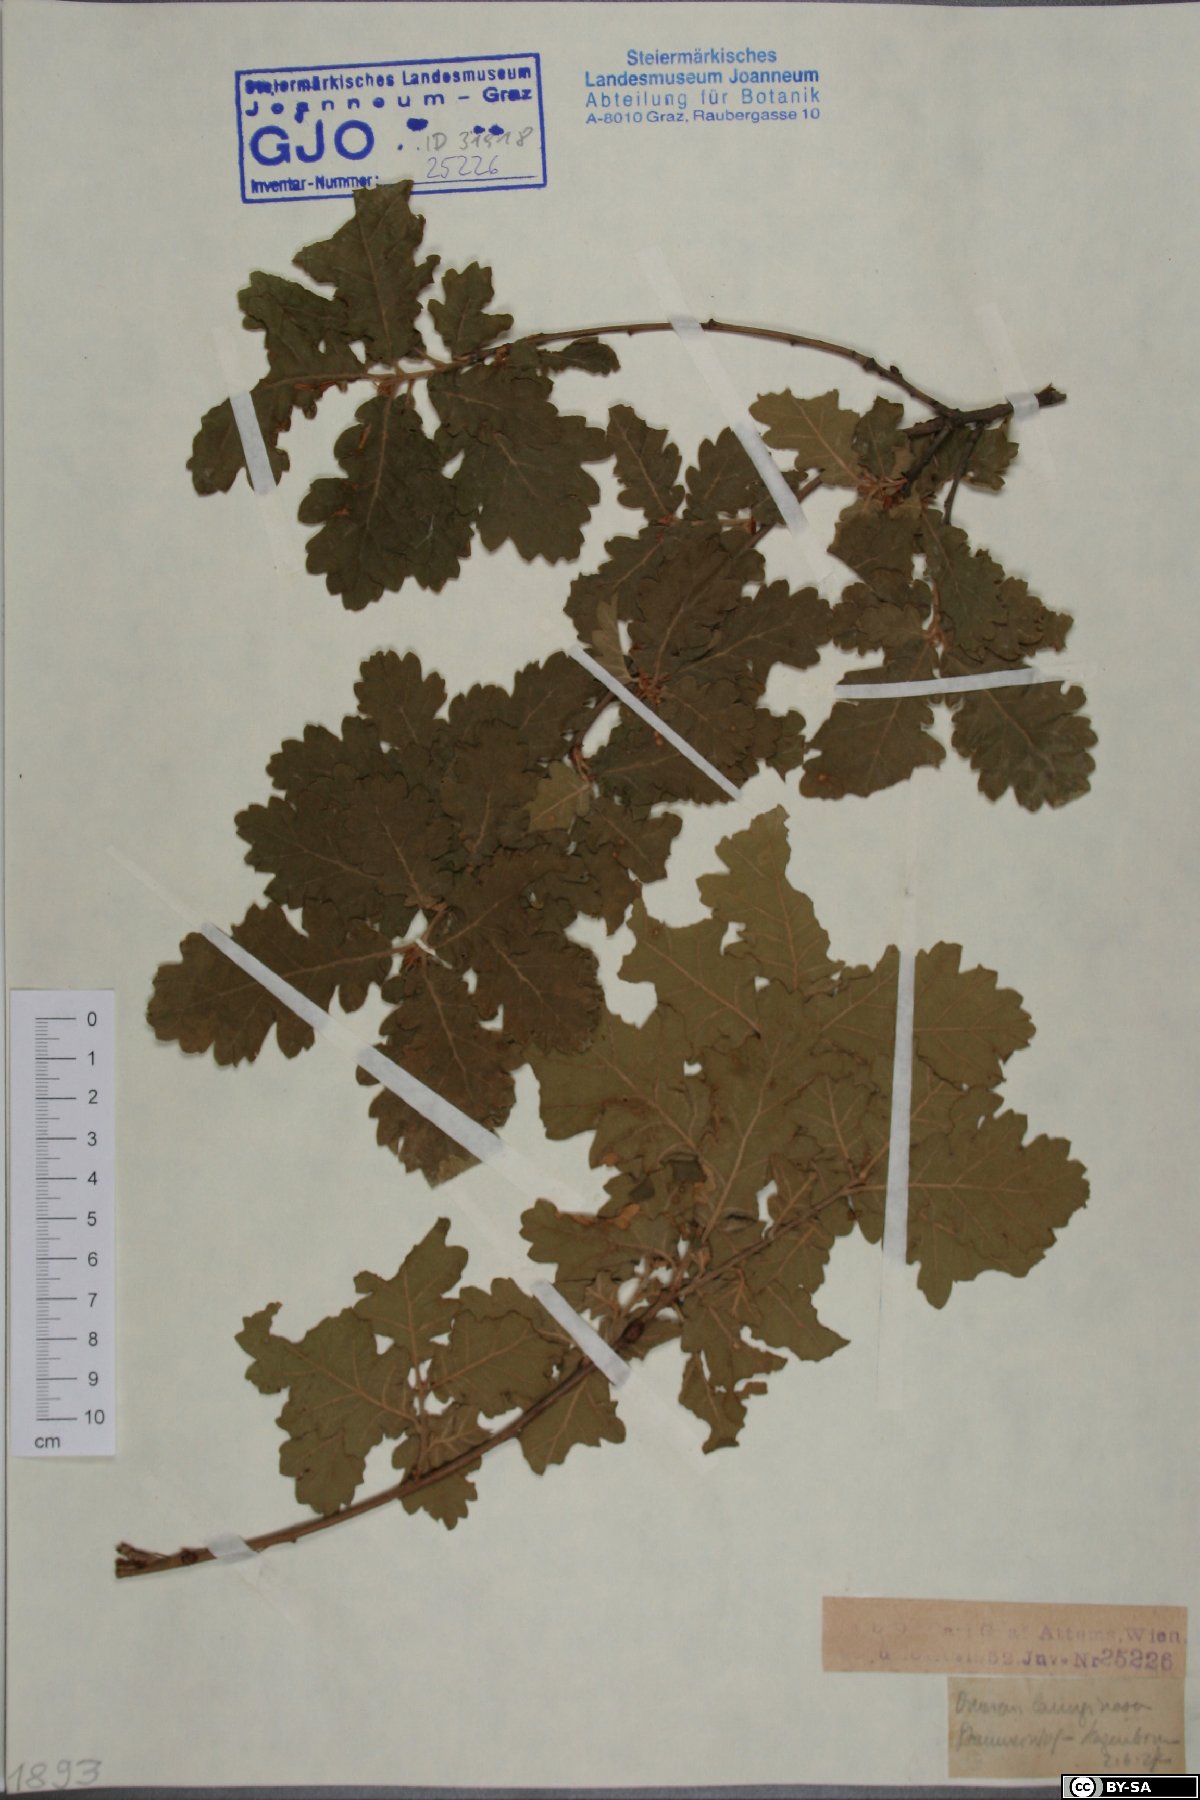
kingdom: Plantae
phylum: Tracheophyta
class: Magnoliopsida
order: Fagales
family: Fagaceae
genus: Quercus
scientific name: Quercus pubescens
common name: Downy oak
